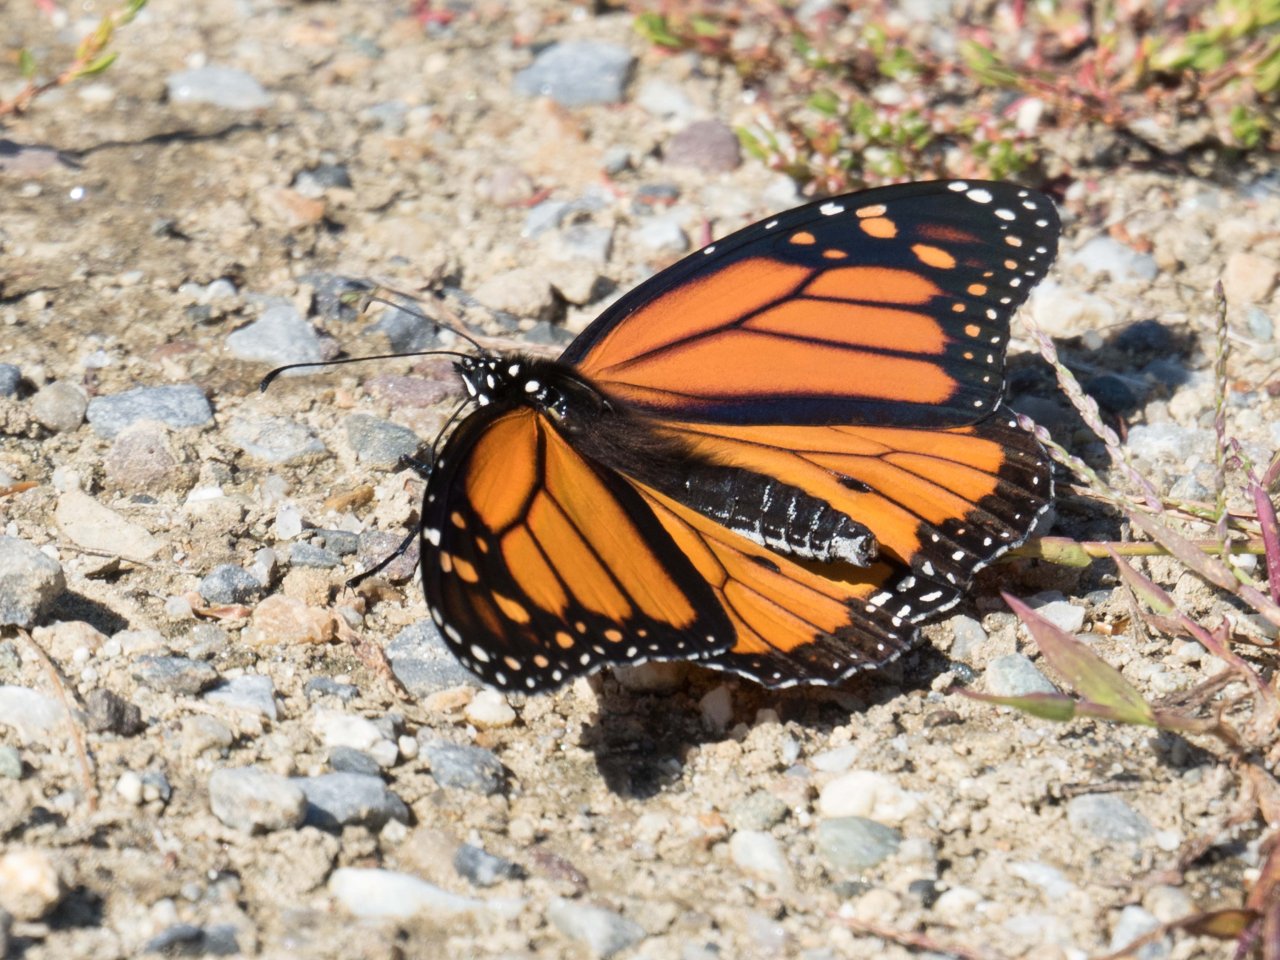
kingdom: Animalia
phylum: Arthropoda
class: Insecta
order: Lepidoptera
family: Nymphalidae
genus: Danaus
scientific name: Danaus plexippus
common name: Monarch
